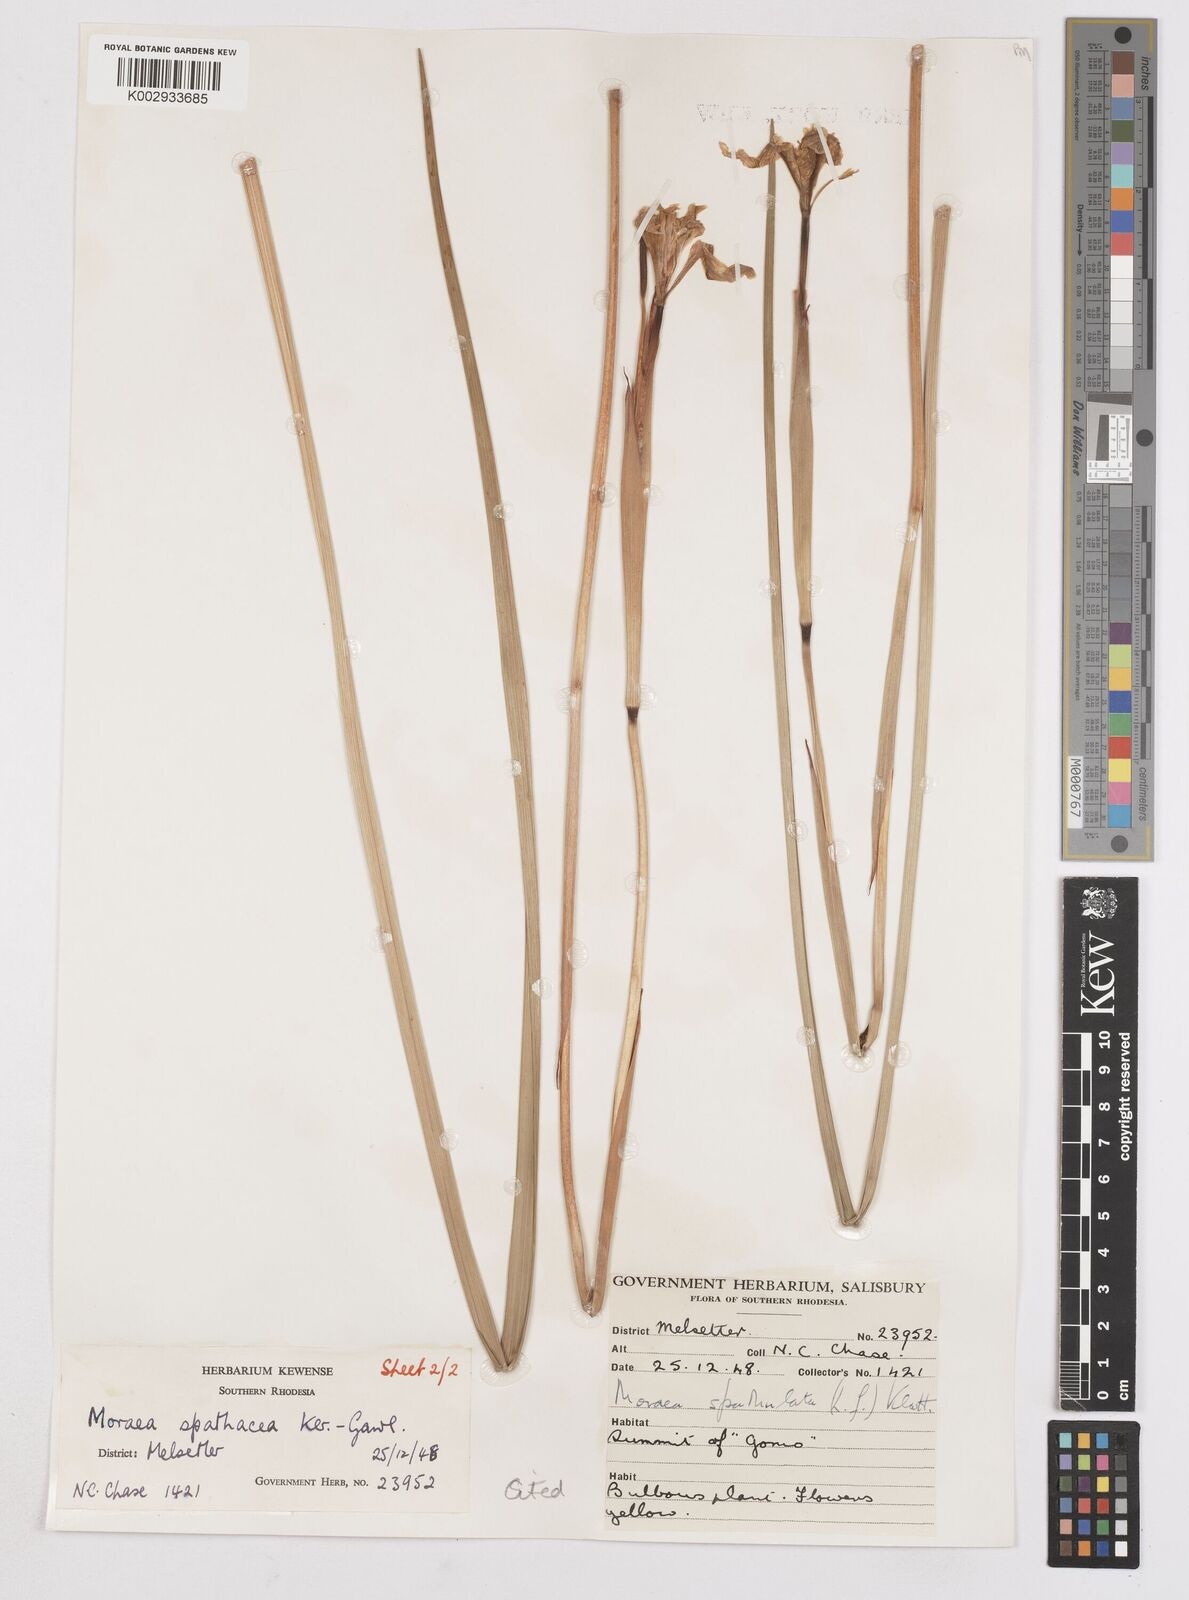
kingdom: Plantae
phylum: Tracheophyta
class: Liliopsida
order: Asparagales
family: Iridaceae
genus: Moraea
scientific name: Moraea spathulata
